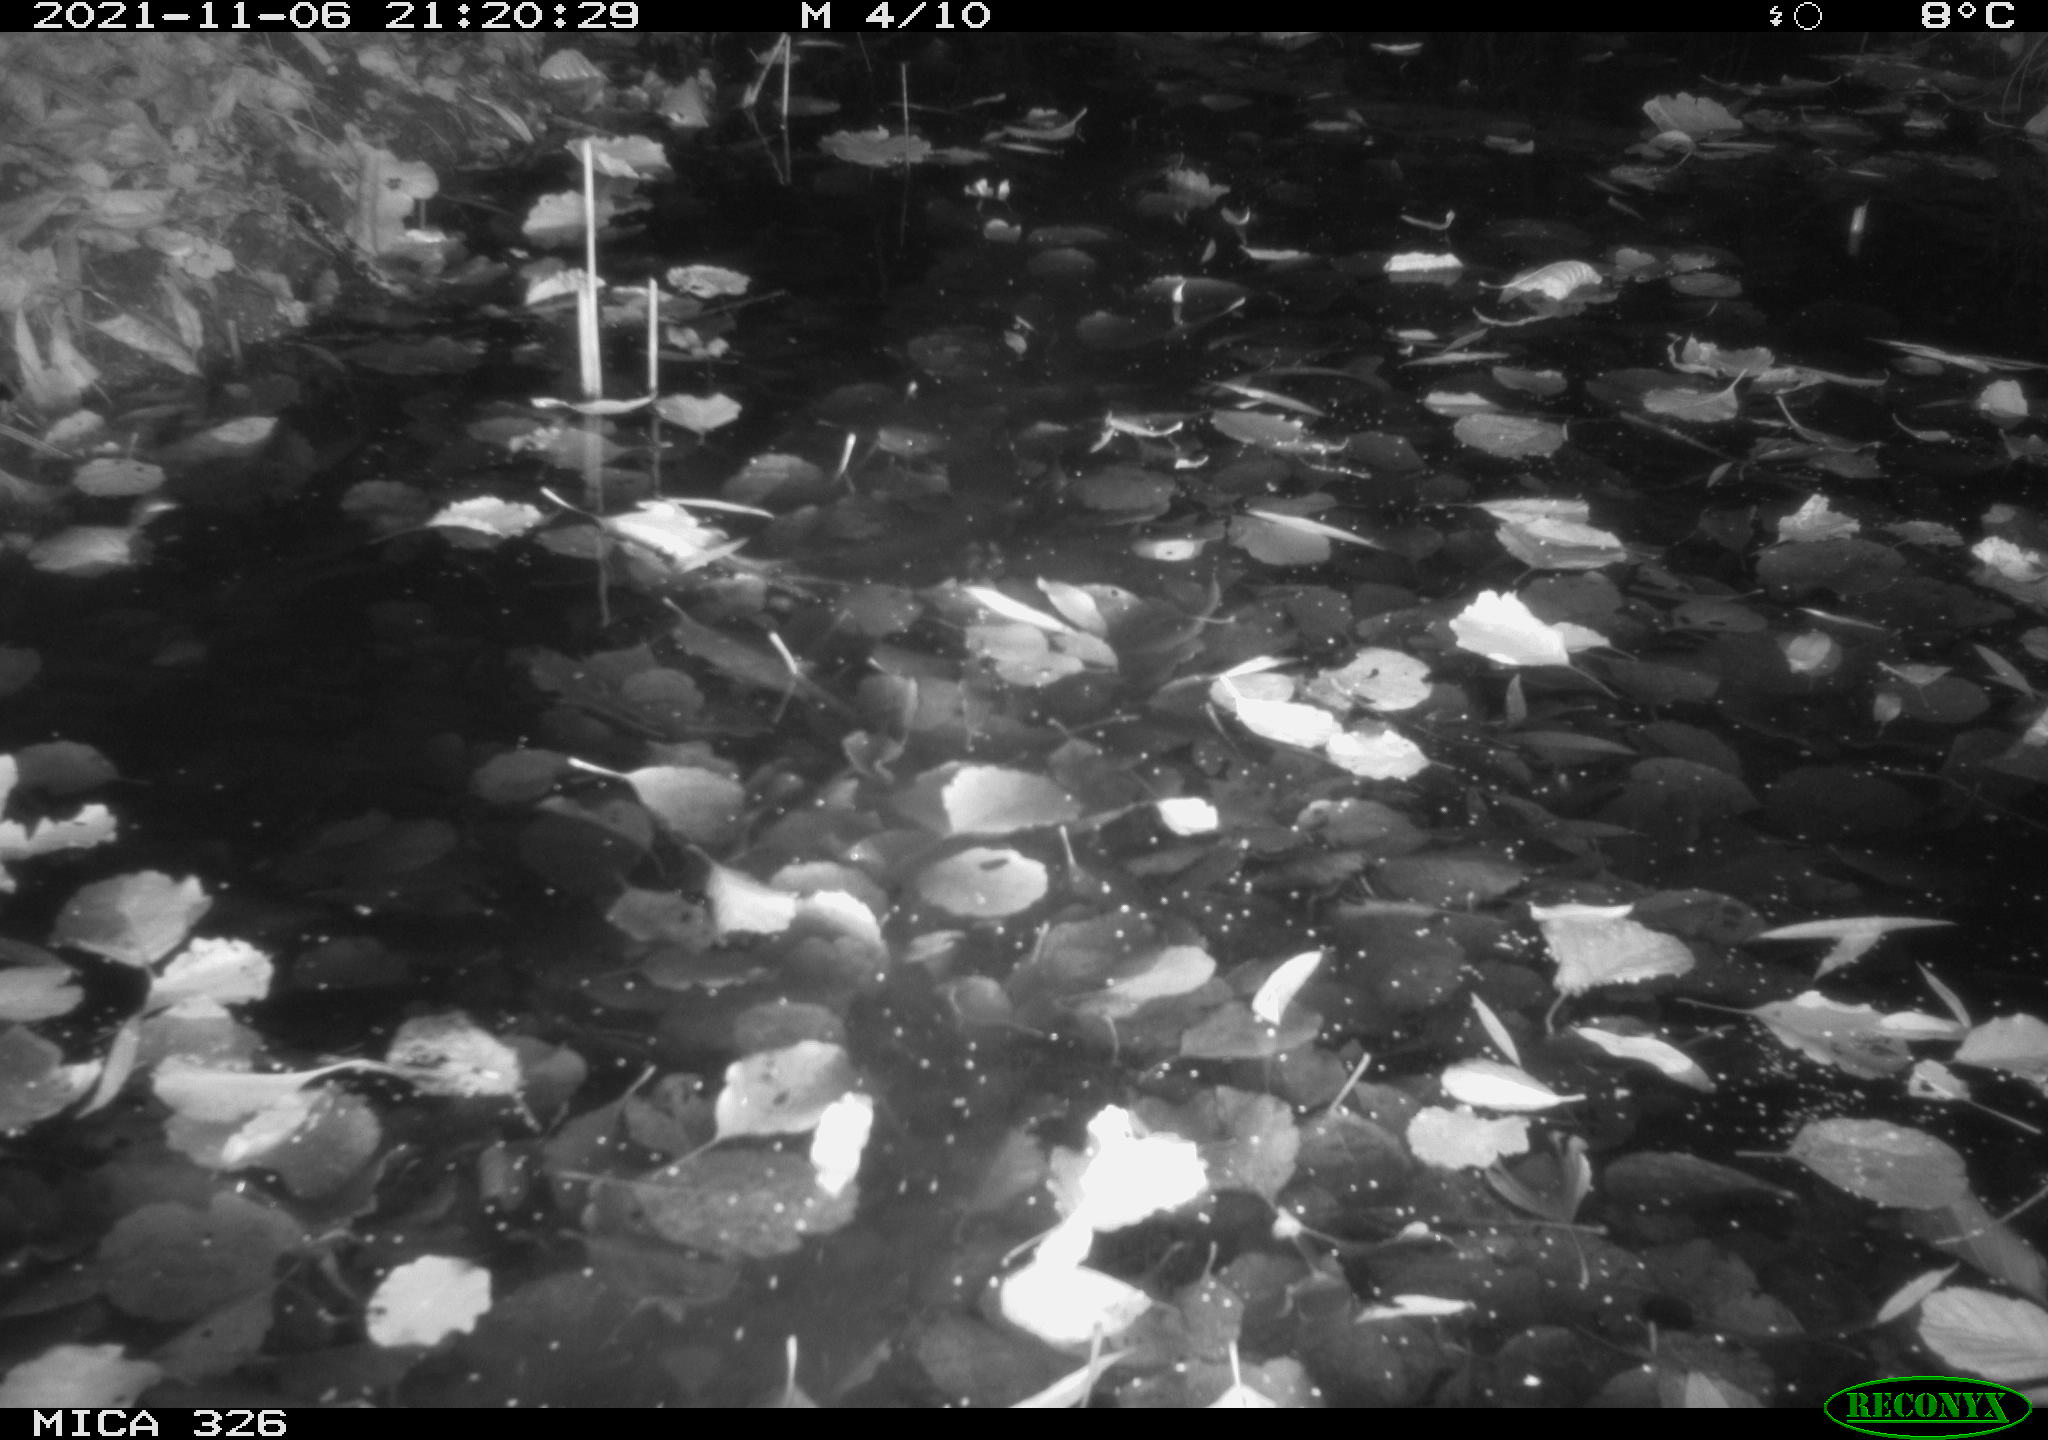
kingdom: Animalia
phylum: Chordata
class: Mammalia
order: Rodentia
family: Myocastoridae
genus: Myocastor
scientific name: Myocastor coypus
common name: Coypu
